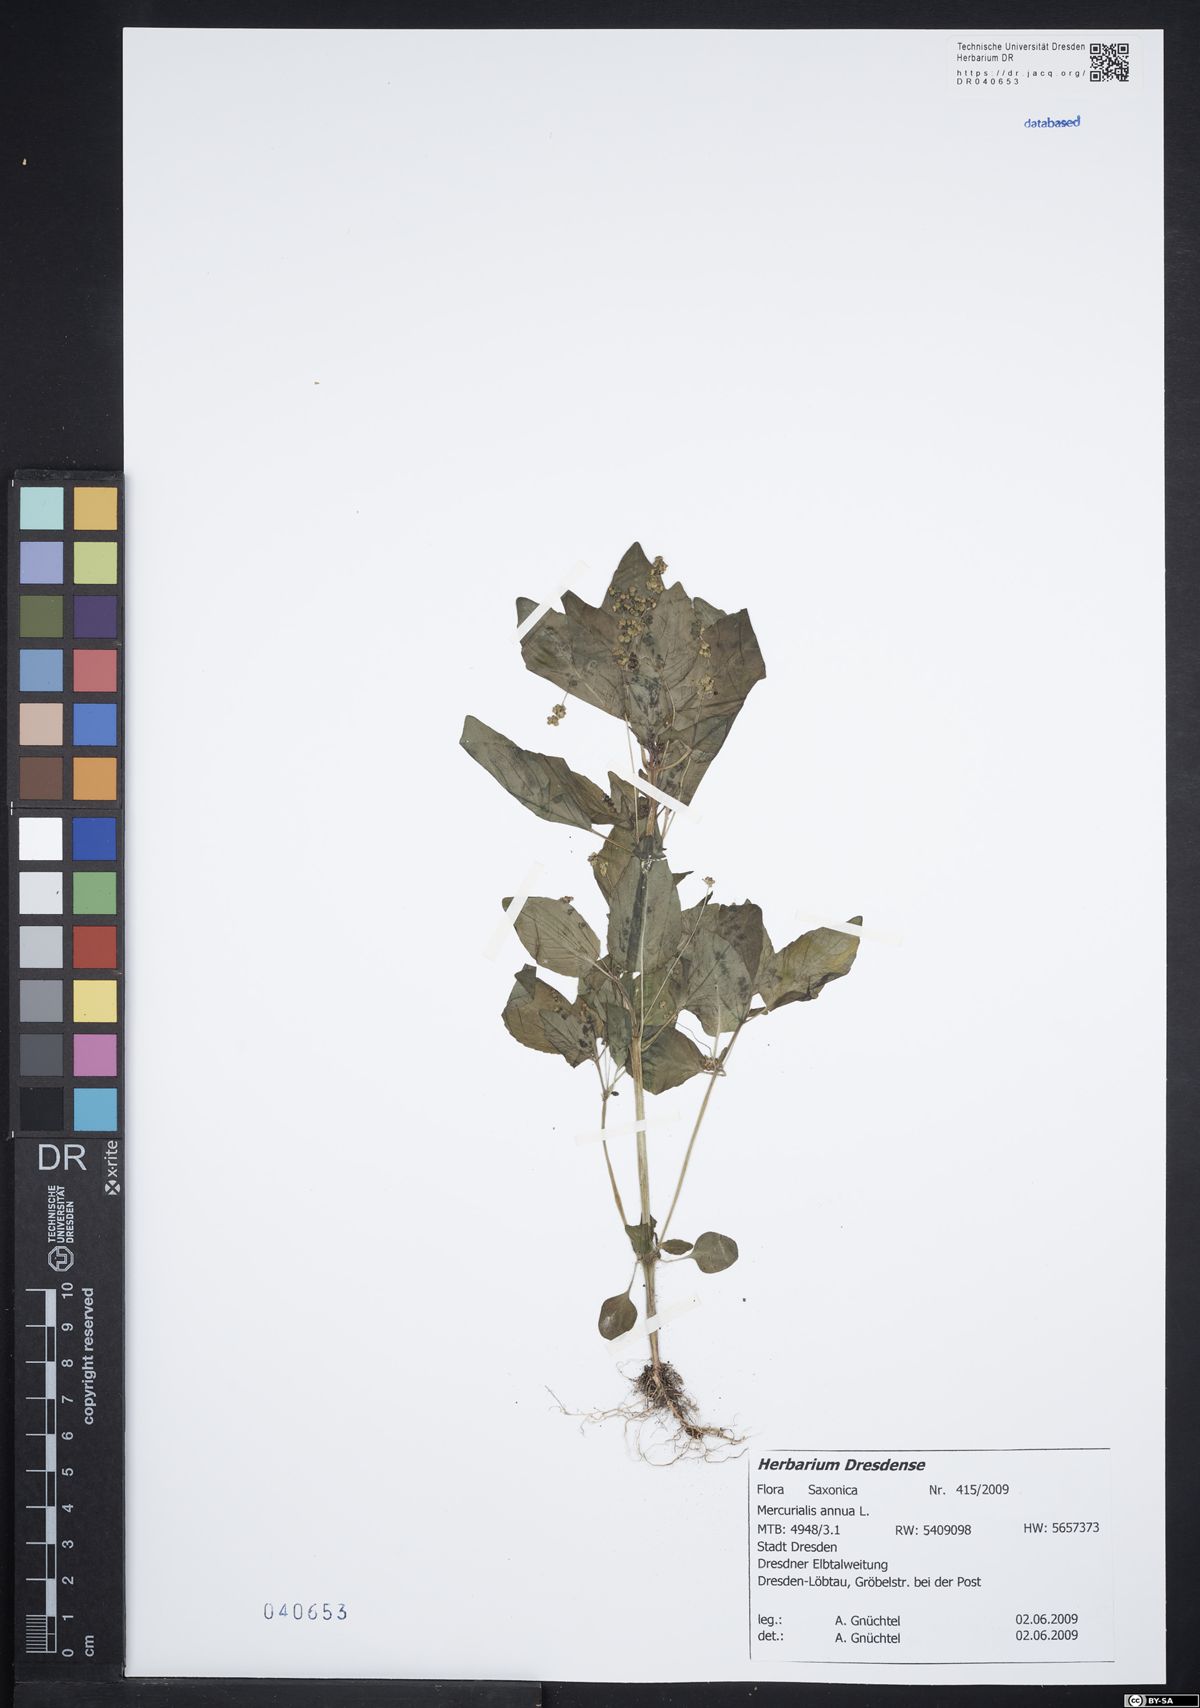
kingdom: Plantae
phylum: Tracheophyta
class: Magnoliopsida
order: Malpighiales
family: Euphorbiaceae
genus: Mercurialis
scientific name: Mercurialis annua
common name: Annual mercury
